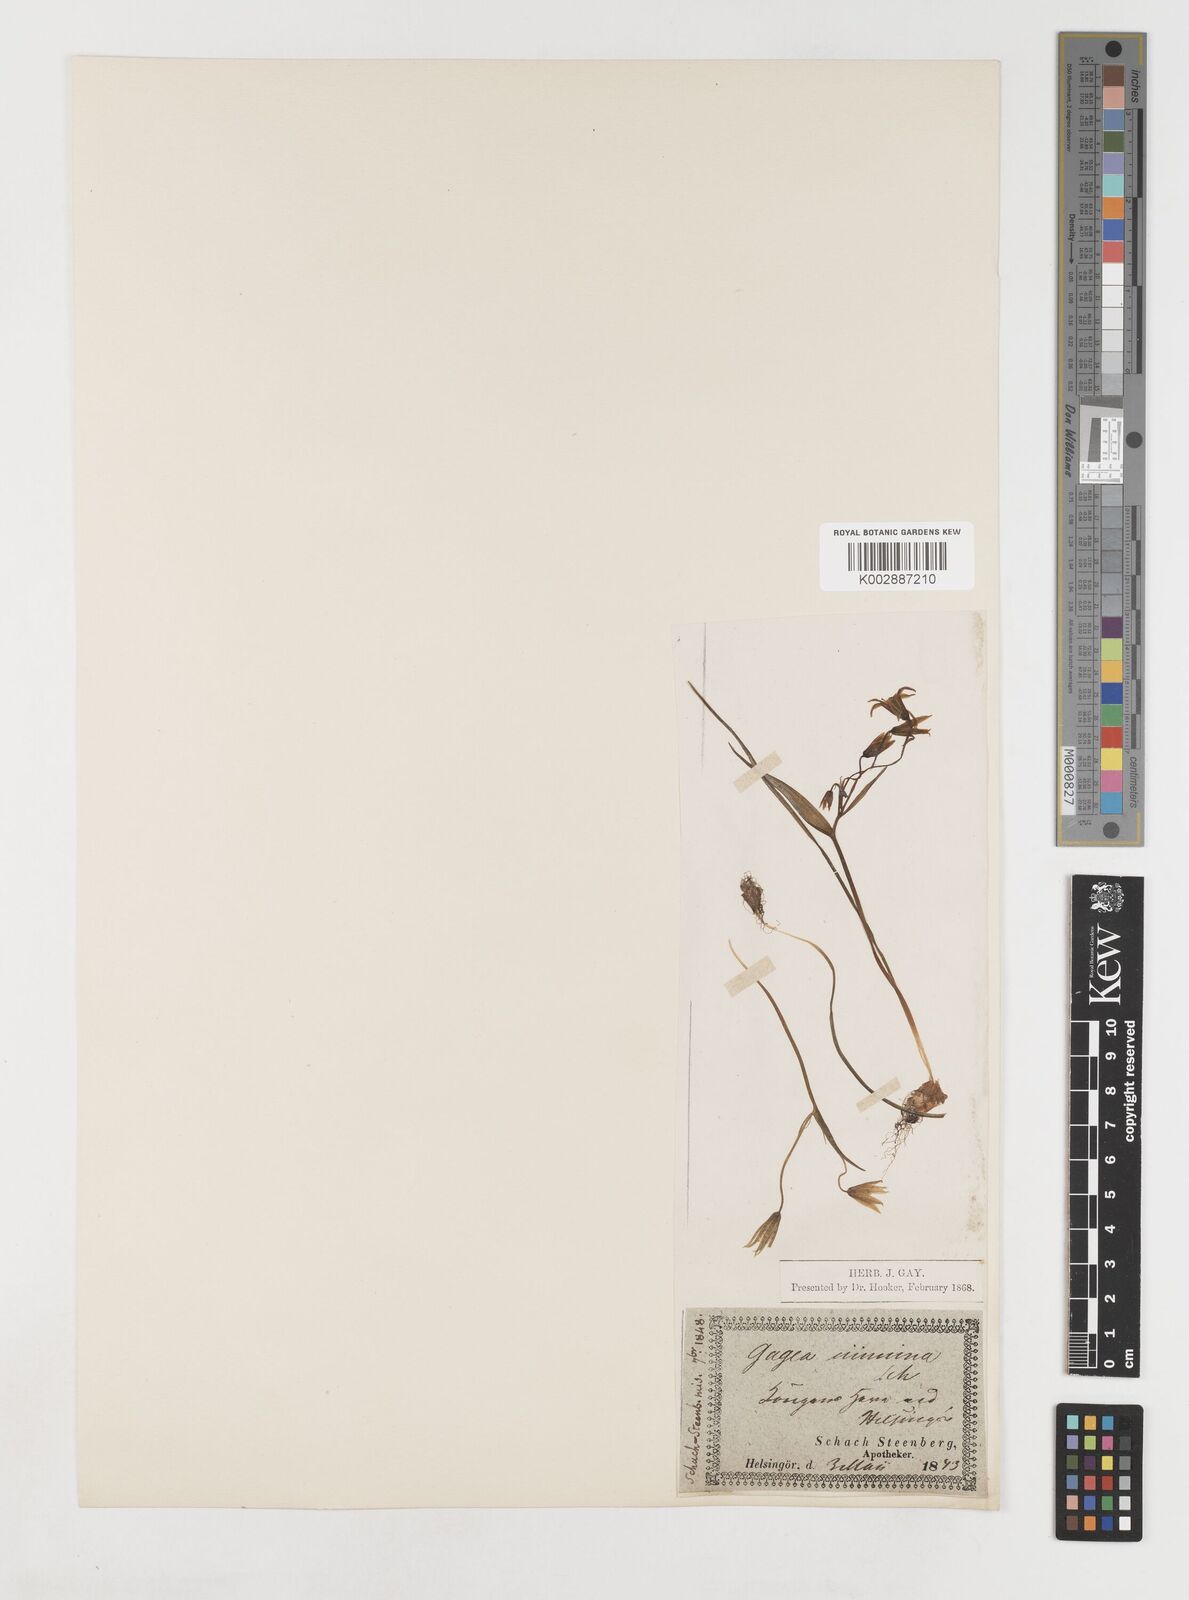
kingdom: Plantae
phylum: Tracheophyta
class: Liliopsida
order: Liliales
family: Liliaceae
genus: Gagea
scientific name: Gagea minima
